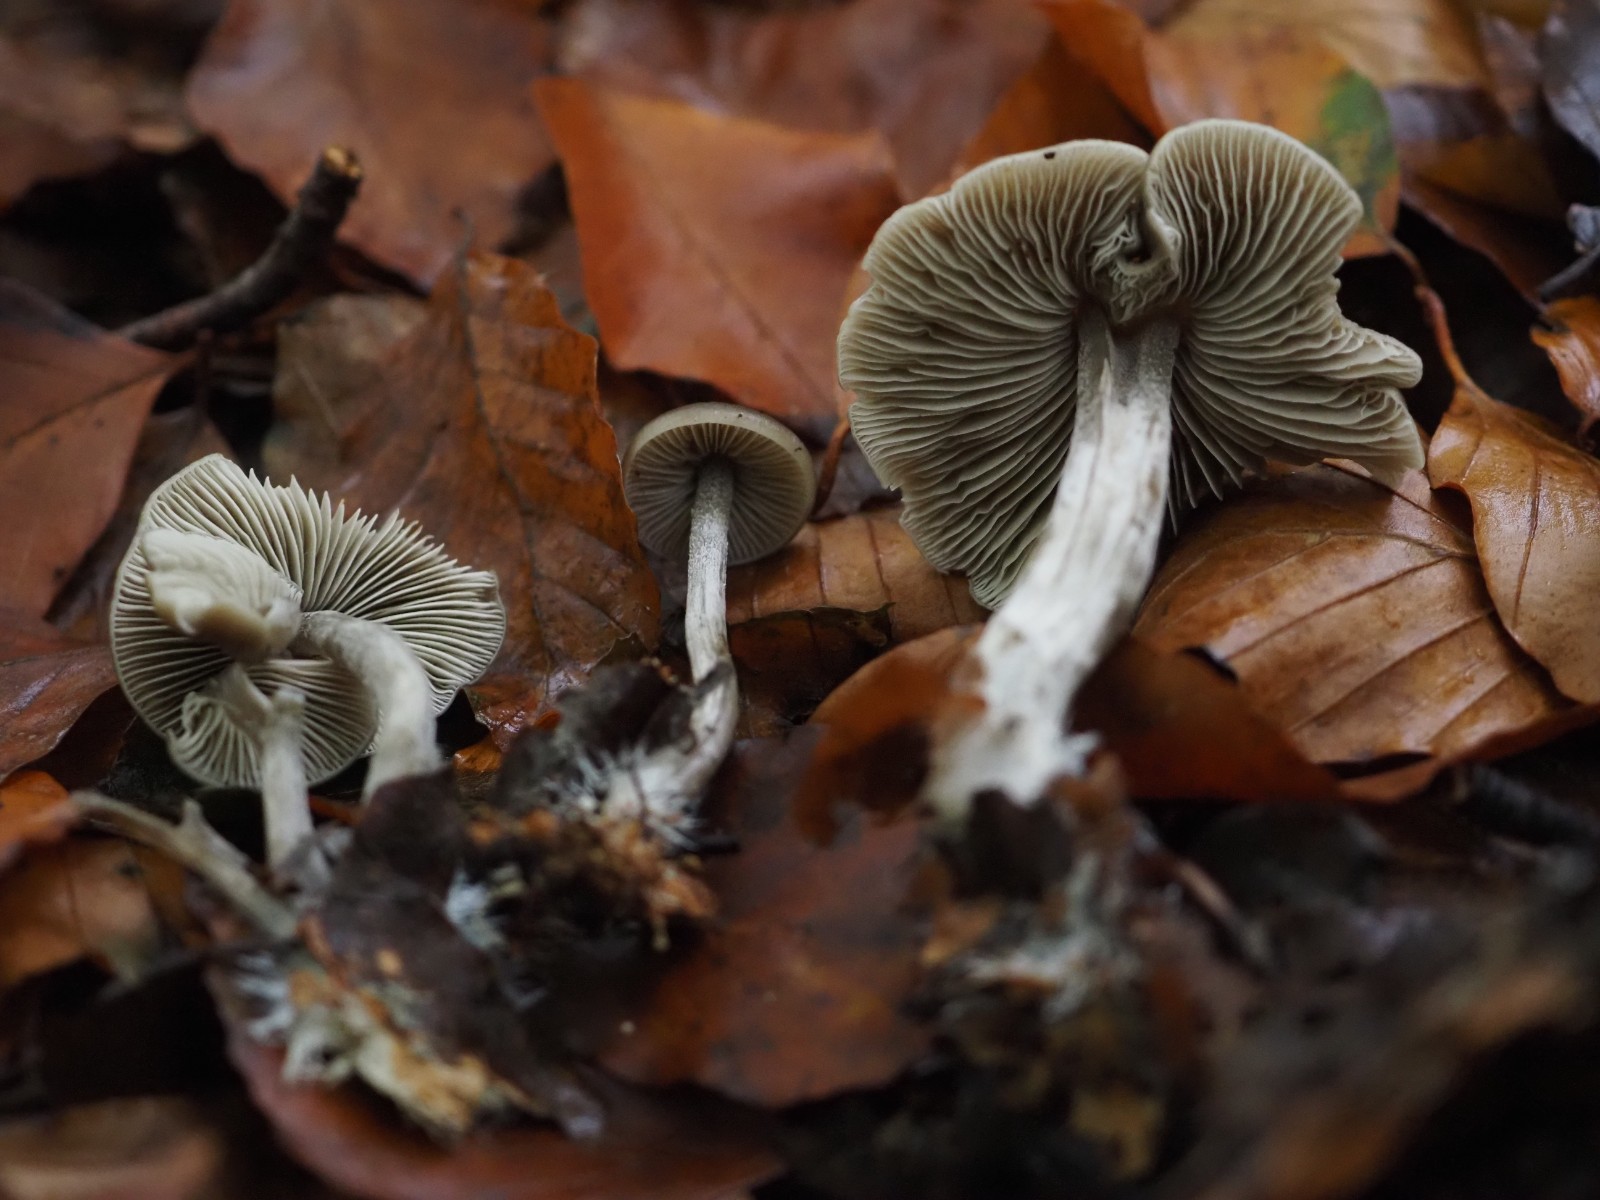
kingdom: Fungi
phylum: Basidiomycota
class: Agaricomycetes
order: Agaricales
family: Lyophyllaceae
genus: Tephrocybe
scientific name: Tephrocybe rancida
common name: mel-gråblad
